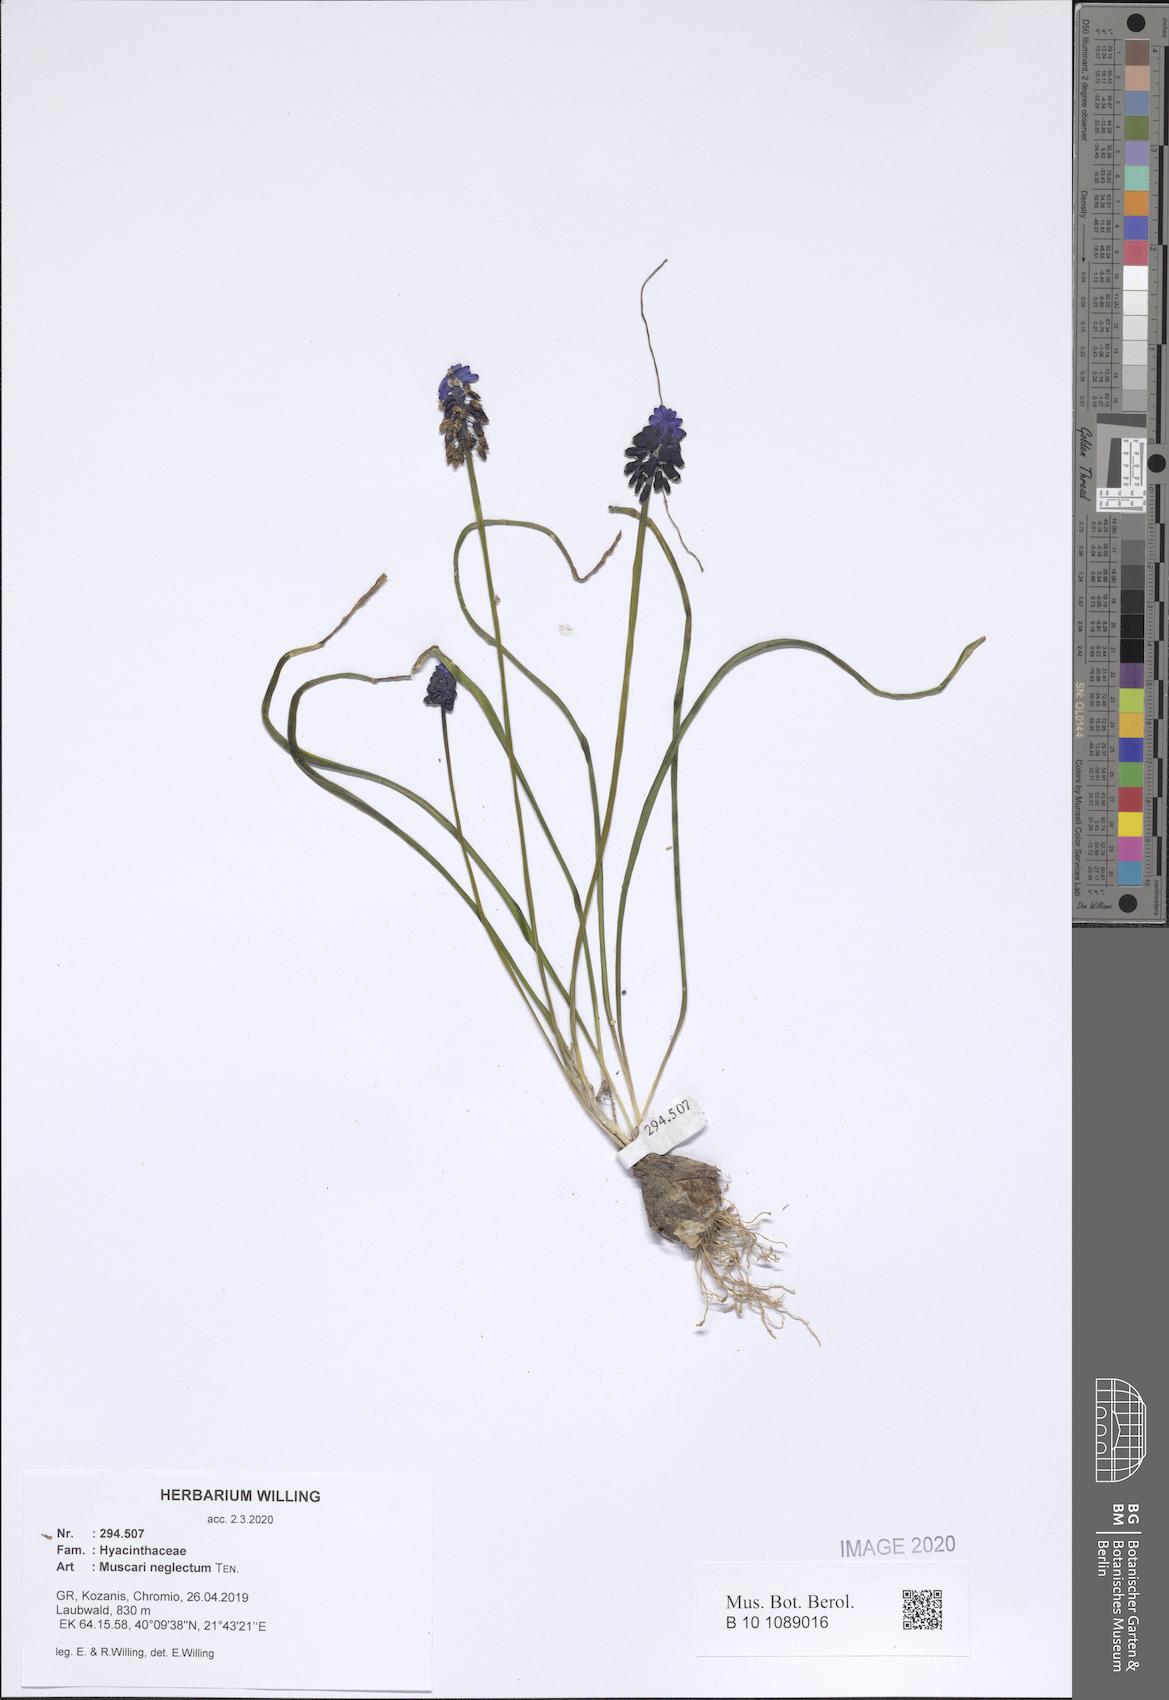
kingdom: Plantae
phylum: Tracheophyta
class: Liliopsida
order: Asparagales
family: Asparagaceae
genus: Muscari
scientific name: Muscari neglectum
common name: Grape-hyacinth
